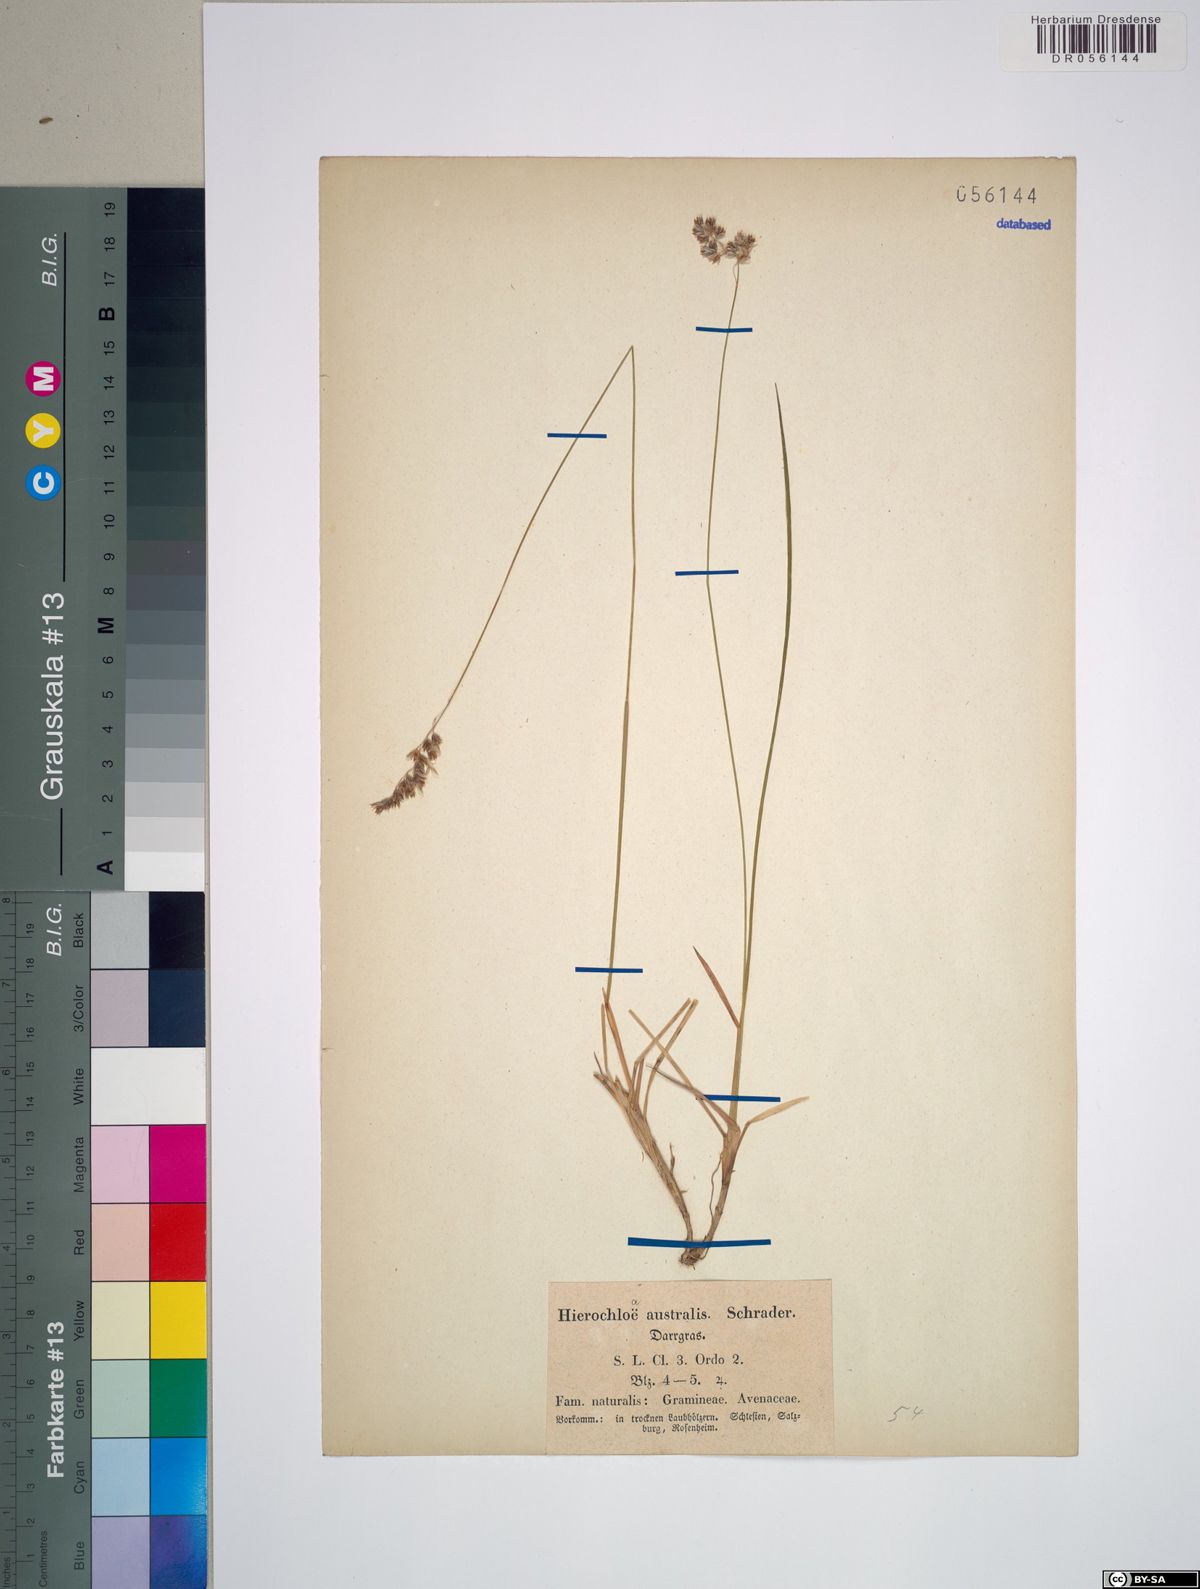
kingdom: Plantae
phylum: Tracheophyta
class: Liliopsida
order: Poales
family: Poaceae
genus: Anthoxanthum
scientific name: Anthoxanthum australe
